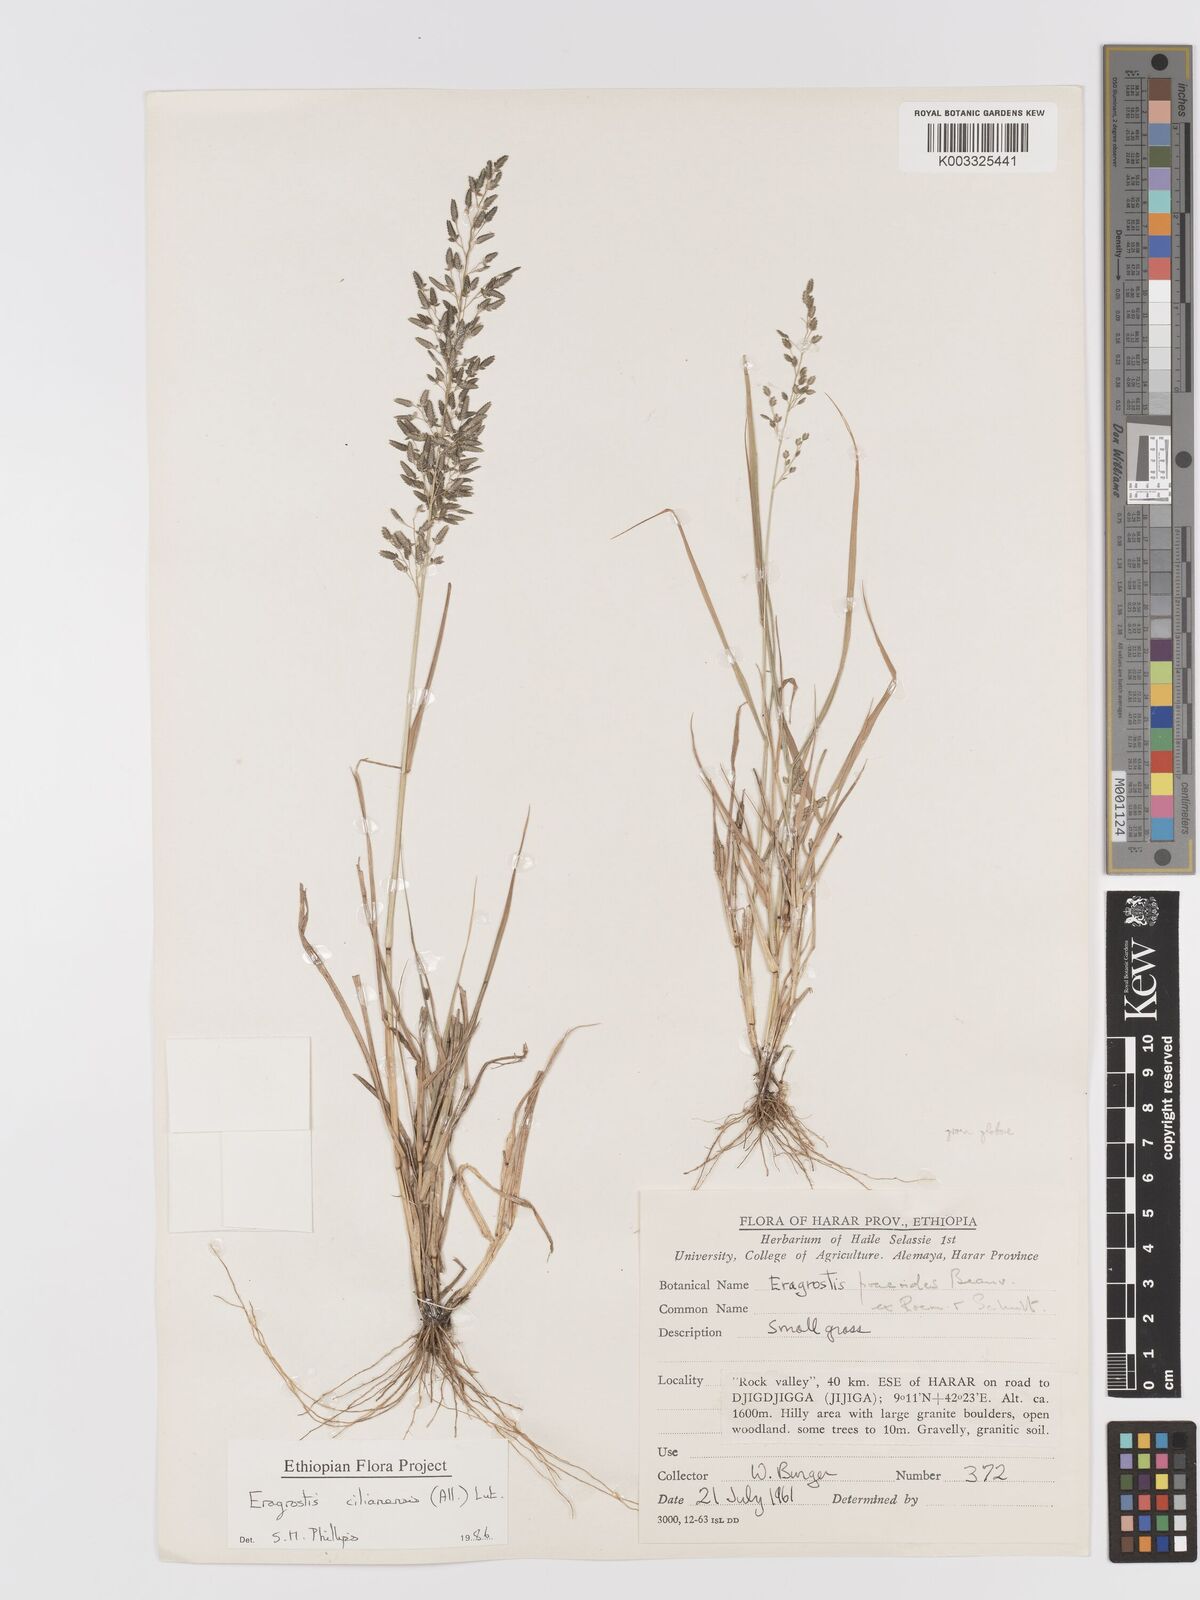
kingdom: Plantae
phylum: Tracheophyta
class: Liliopsida
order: Poales
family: Poaceae
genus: Eragrostis
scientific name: Eragrostis cilianensis
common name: Stinkgrass
